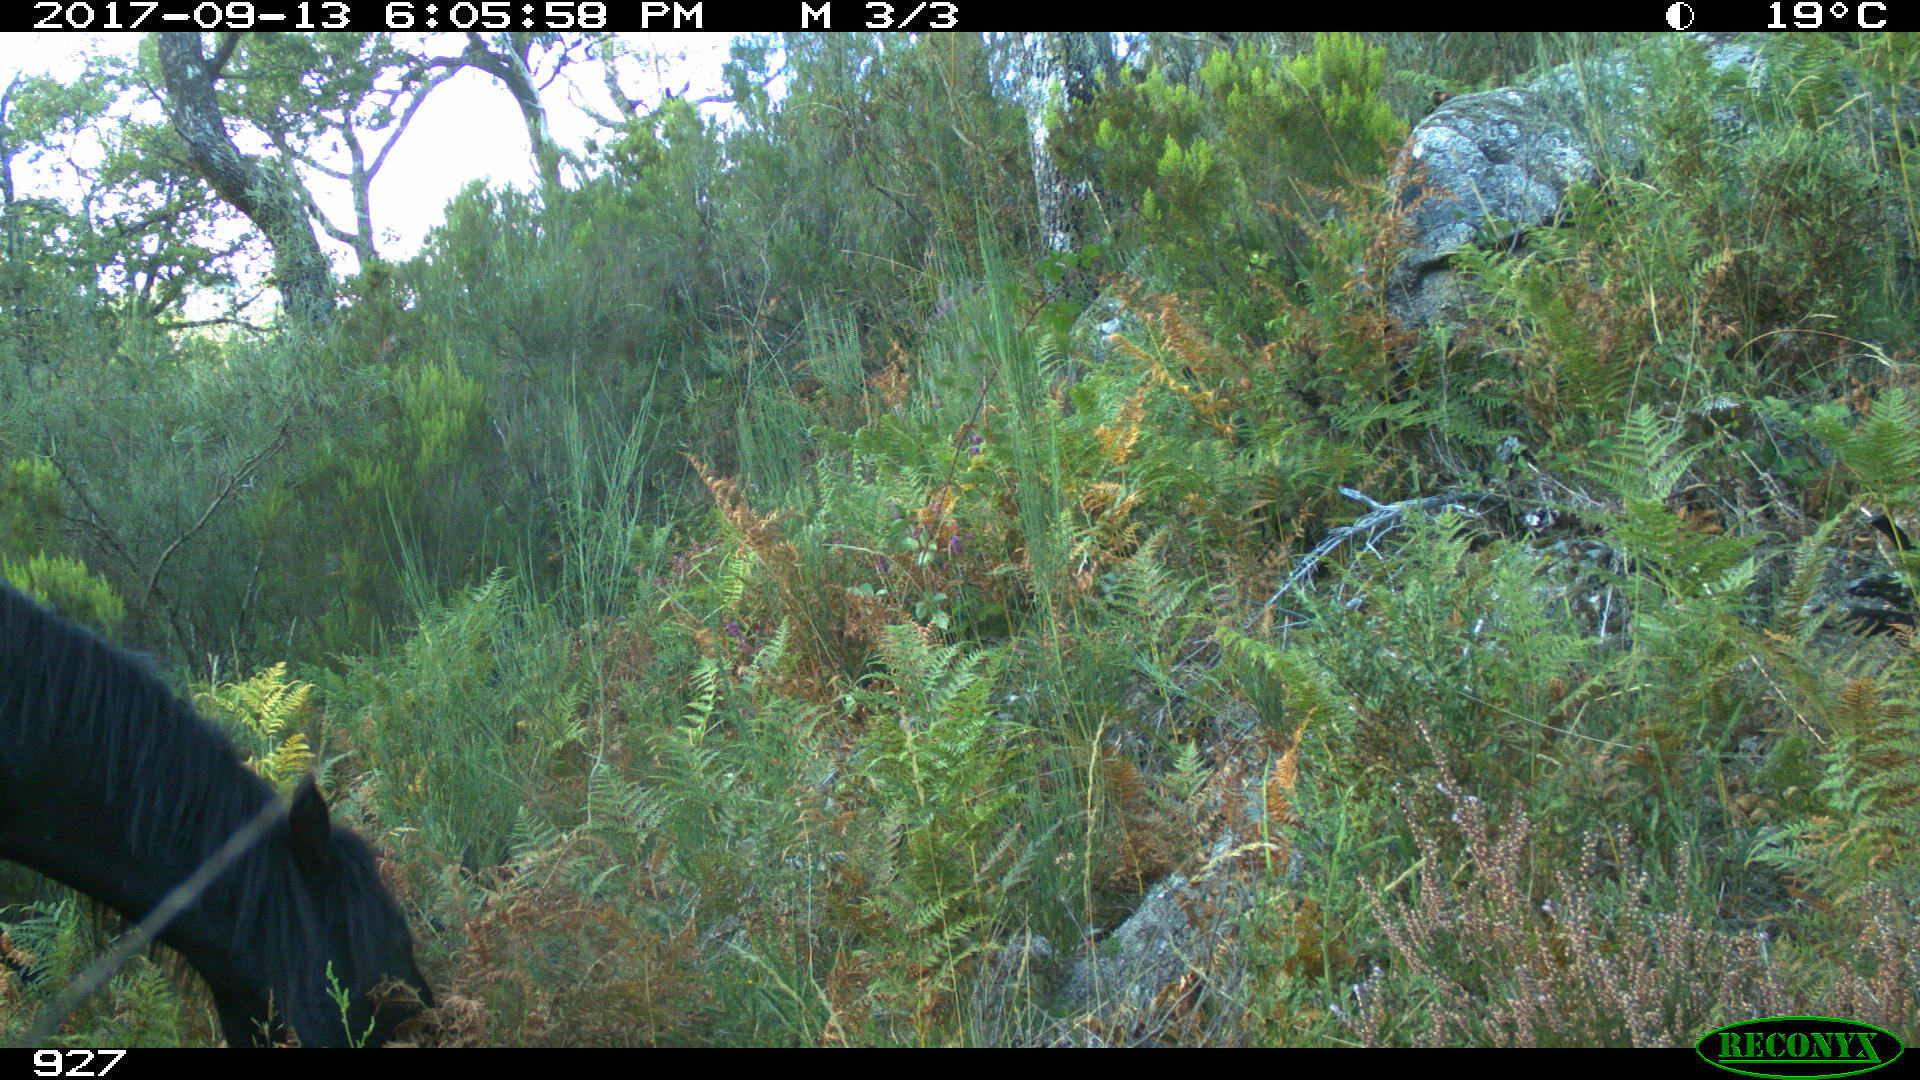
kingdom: Animalia
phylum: Chordata
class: Mammalia
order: Perissodactyla
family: Equidae
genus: Equus
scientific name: Equus caballus
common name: Horse
